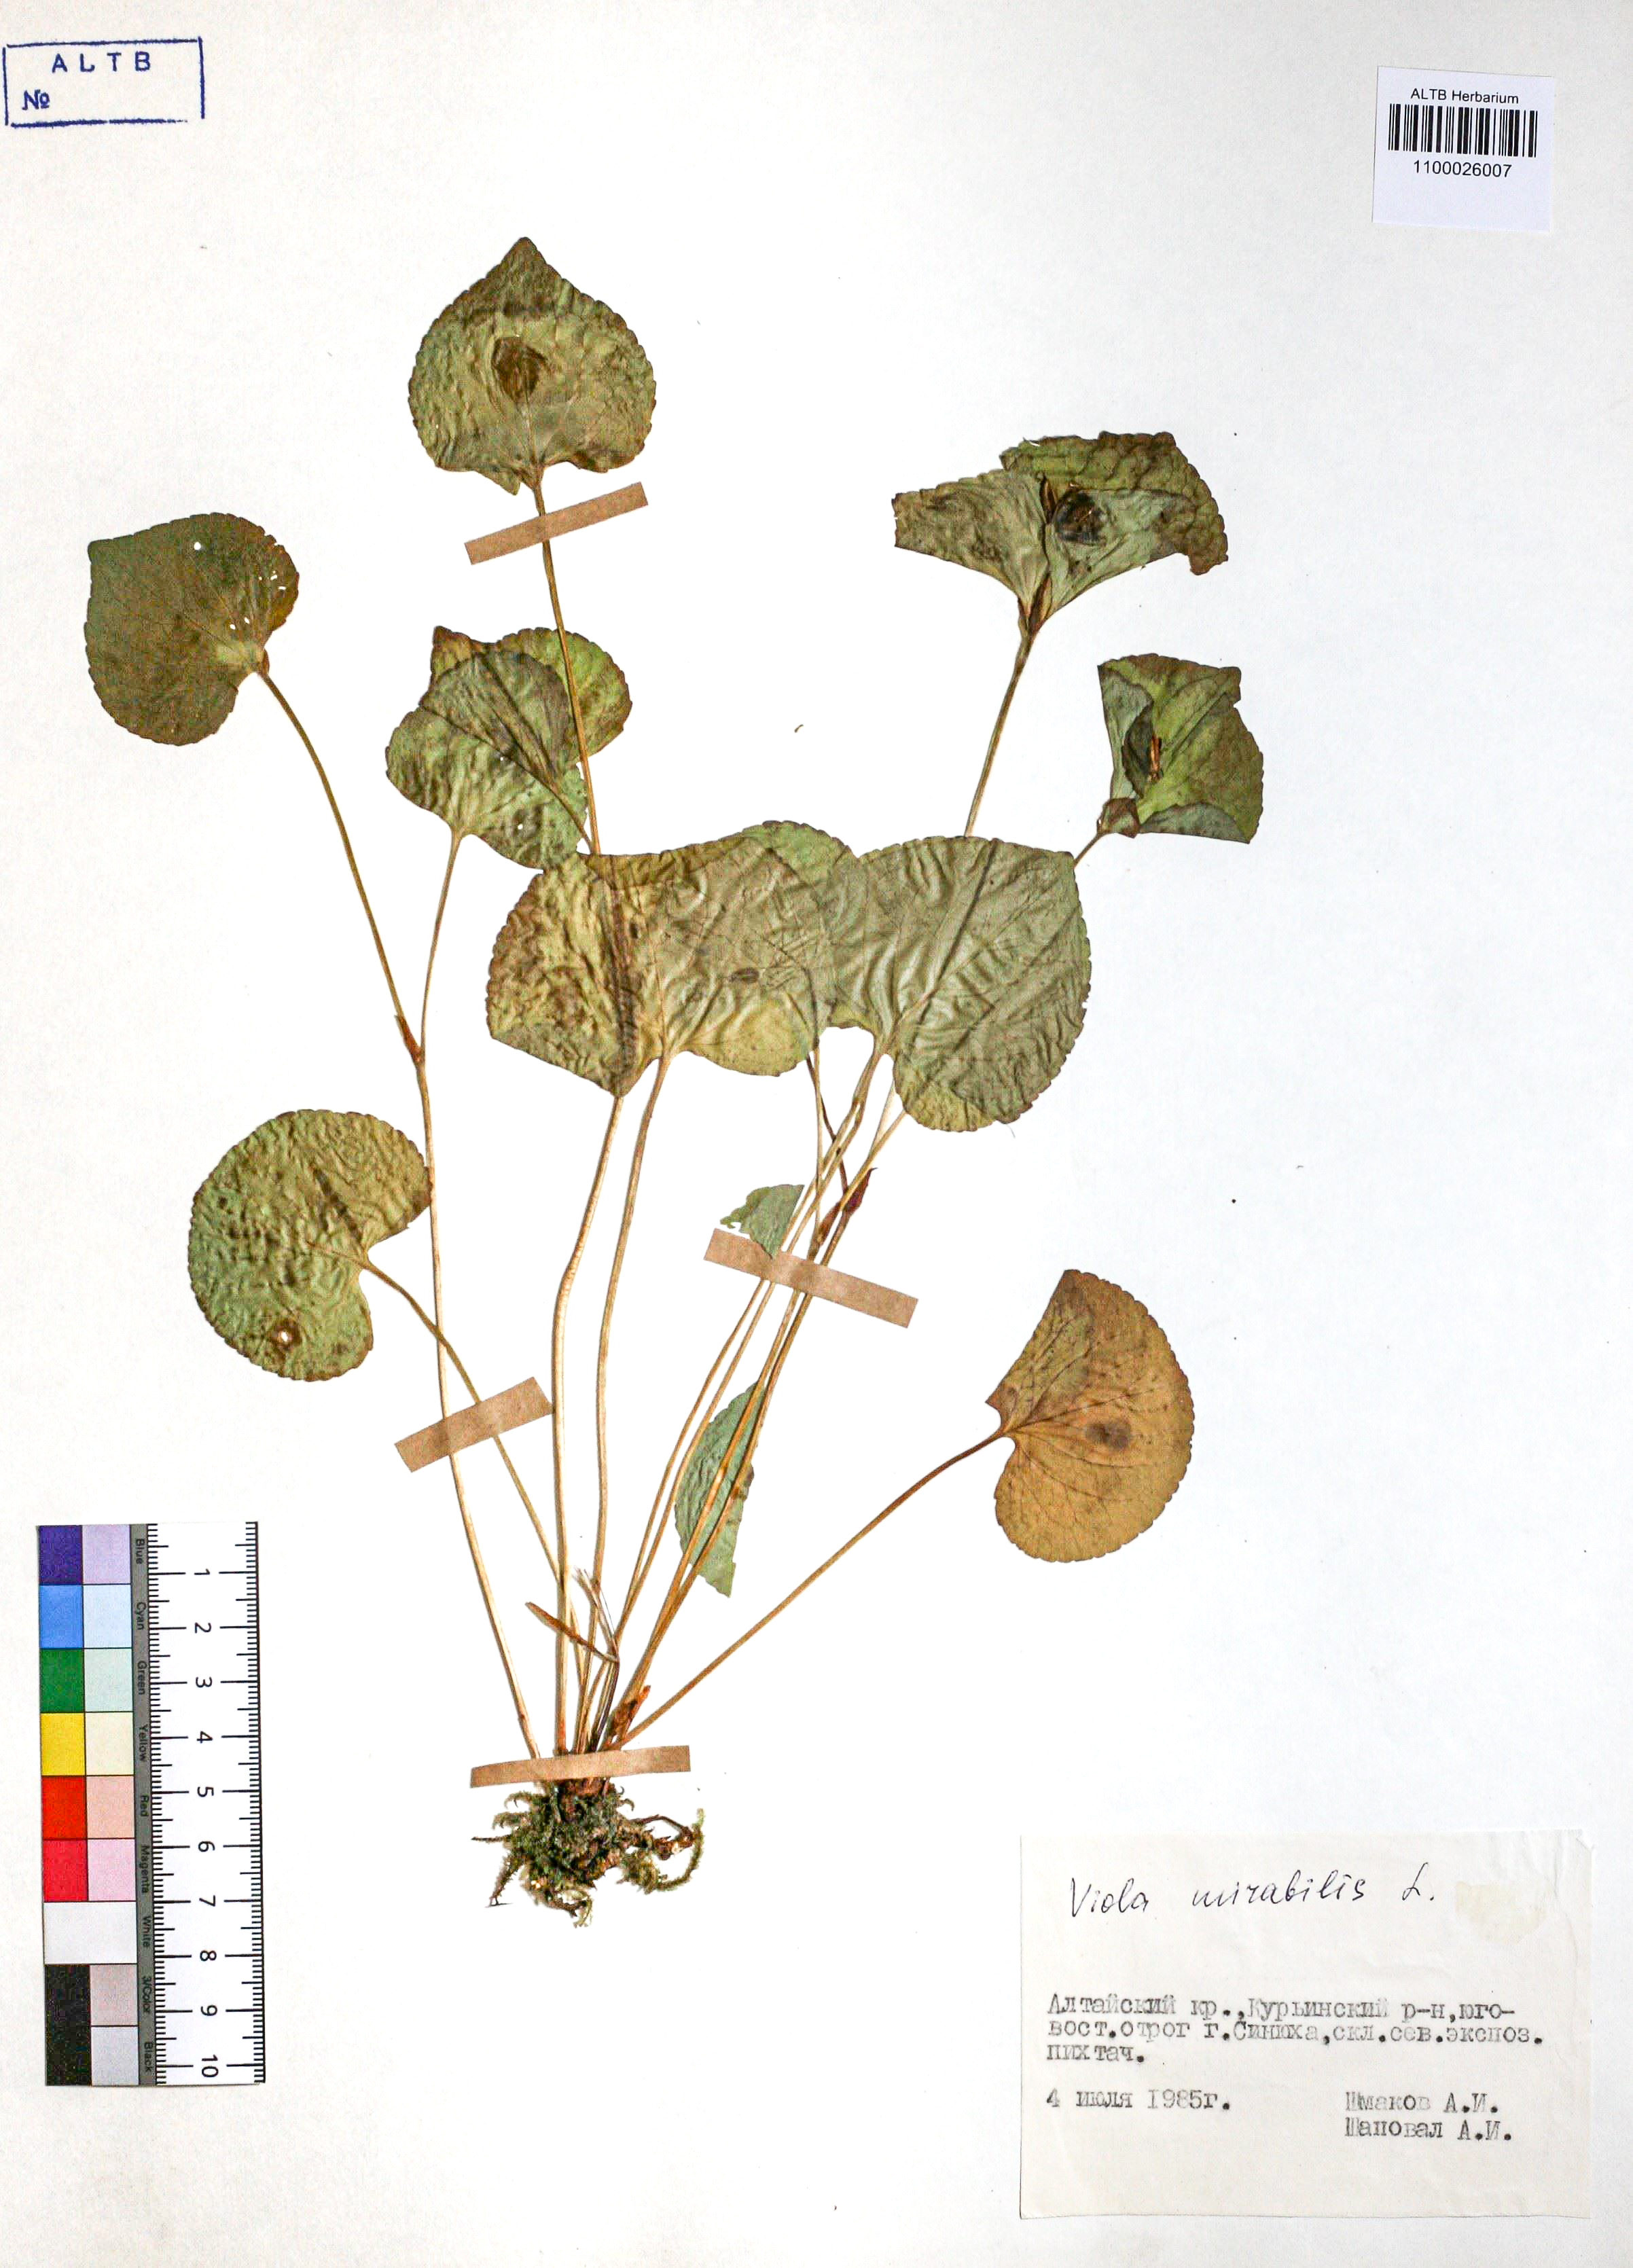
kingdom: Plantae
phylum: Tracheophyta
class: Magnoliopsida
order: Malpighiales
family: Violaceae
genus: Viola
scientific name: Viola mirabilis
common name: Wonder violet
